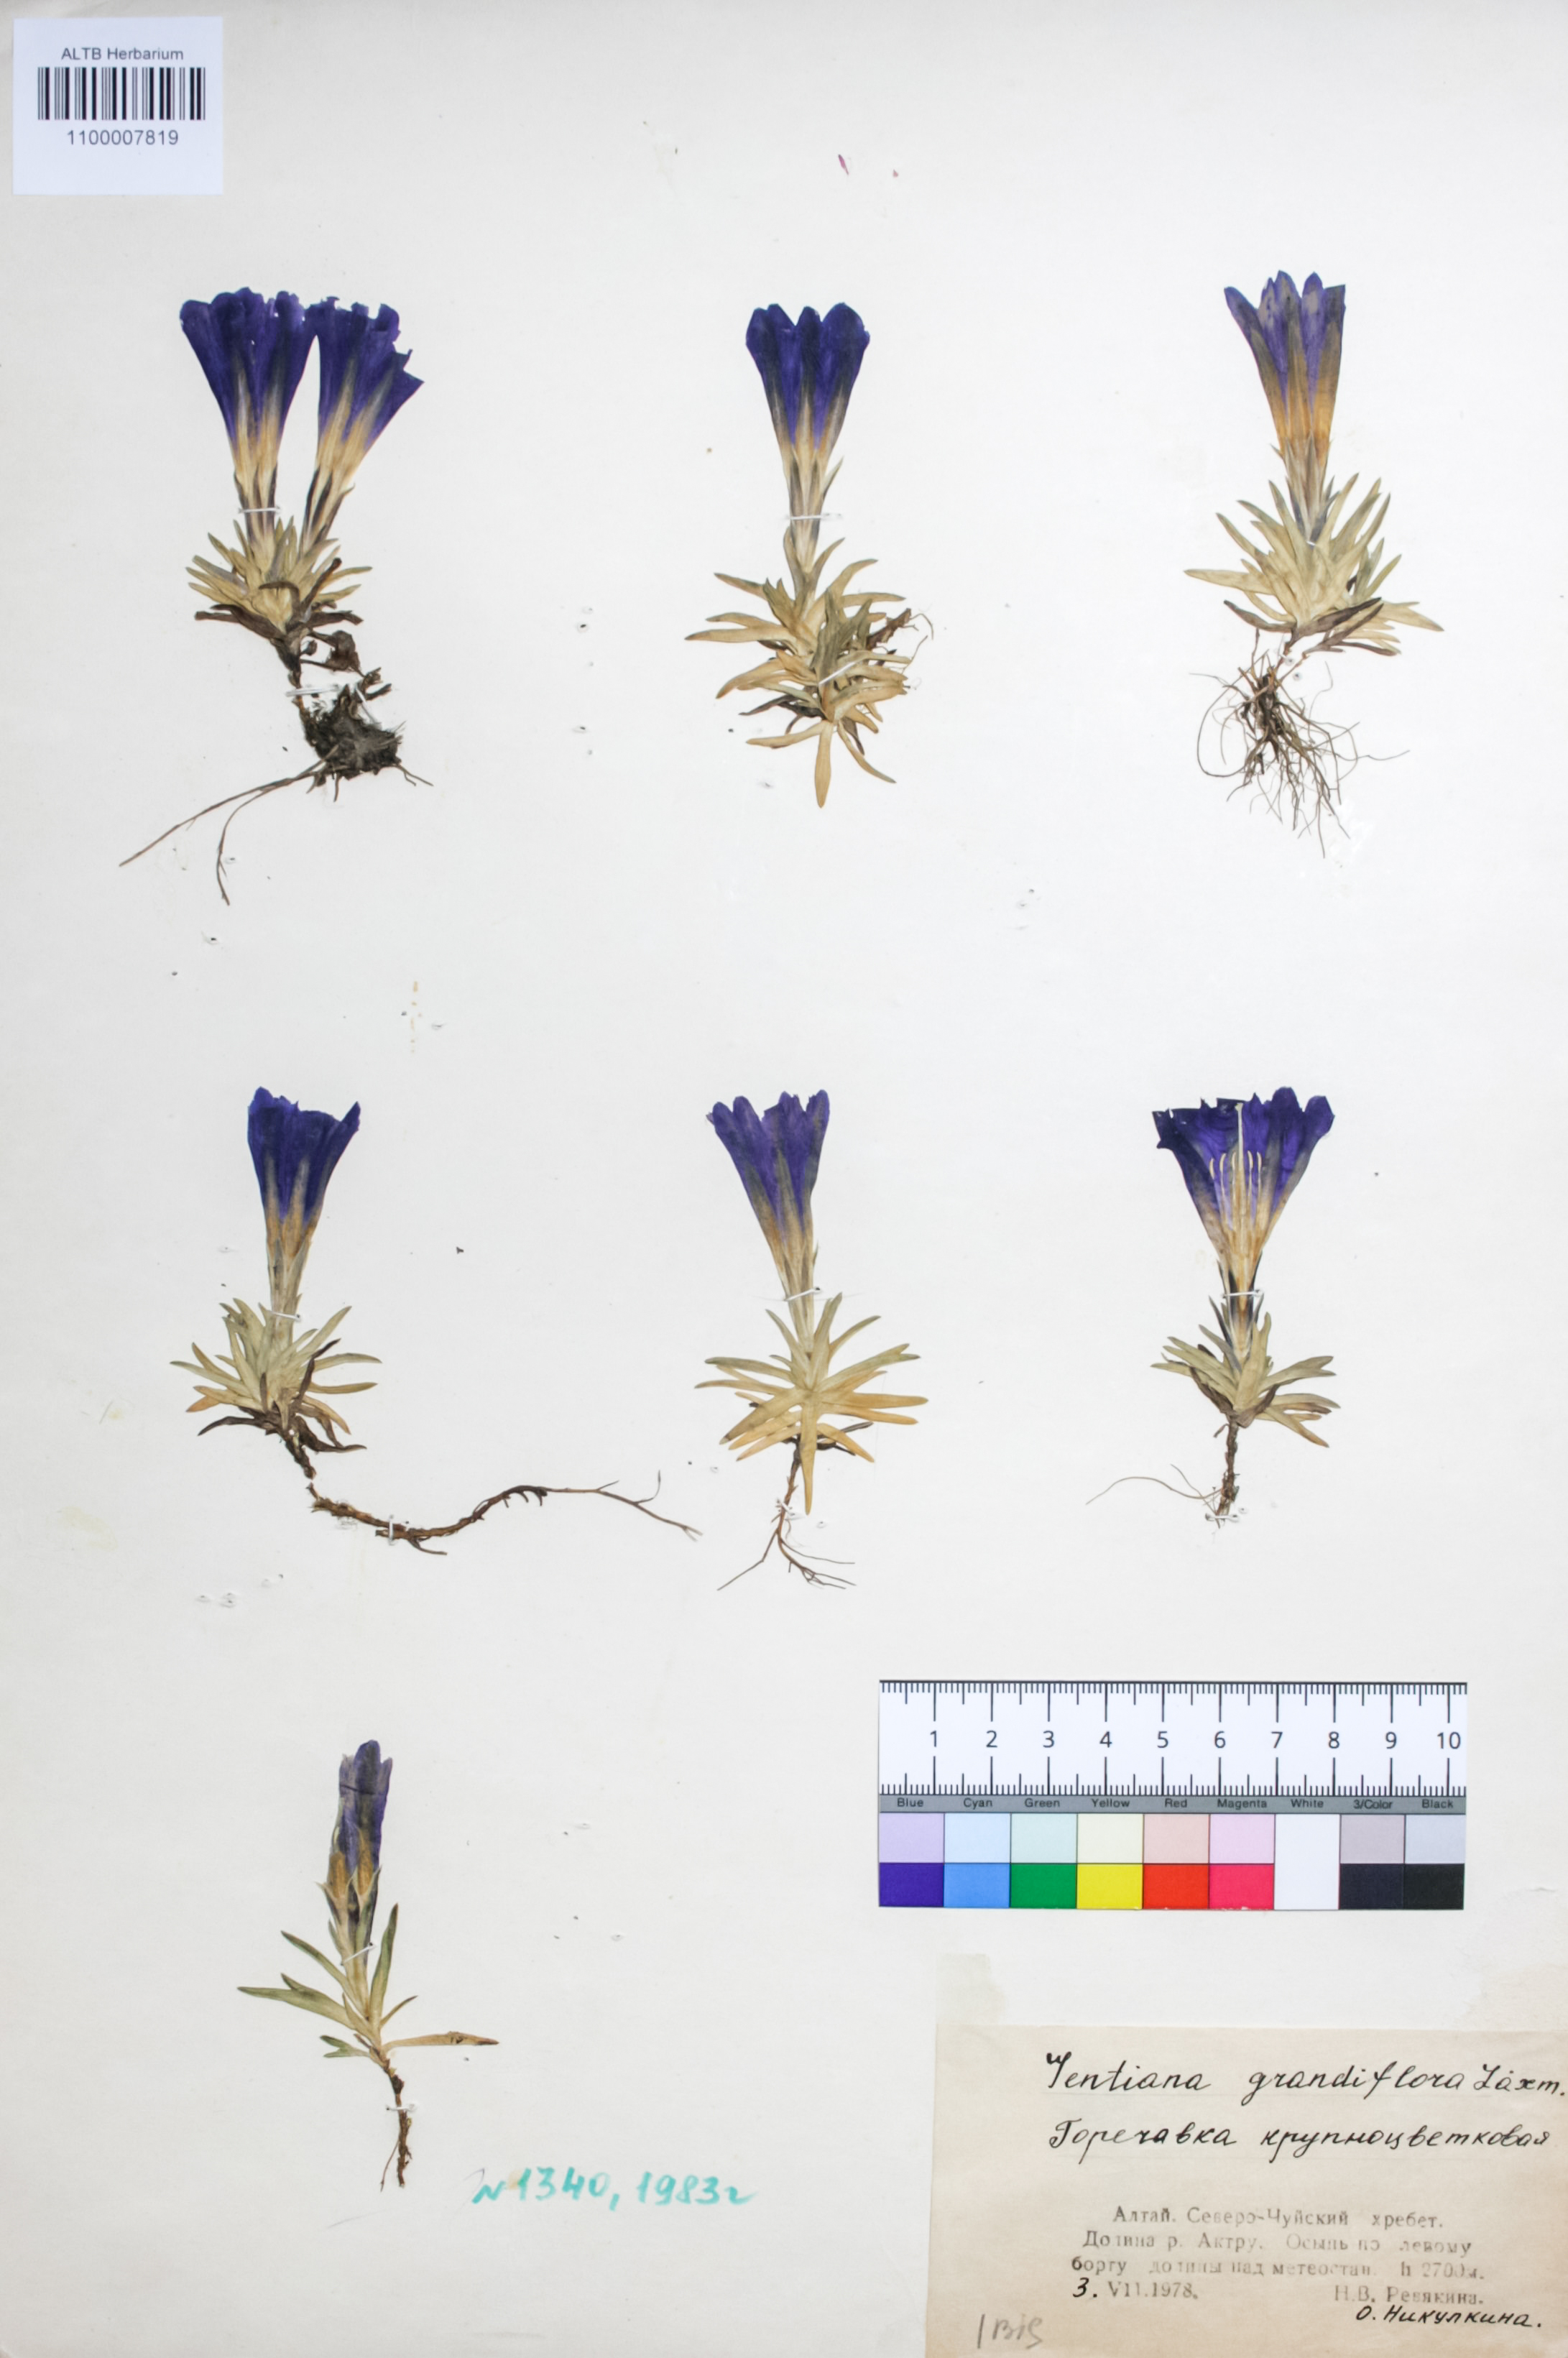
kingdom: Plantae
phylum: Tracheophyta
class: Magnoliopsida
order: Gentianales
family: Gentianaceae
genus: Gentiana
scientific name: Gentiana grandiflora
